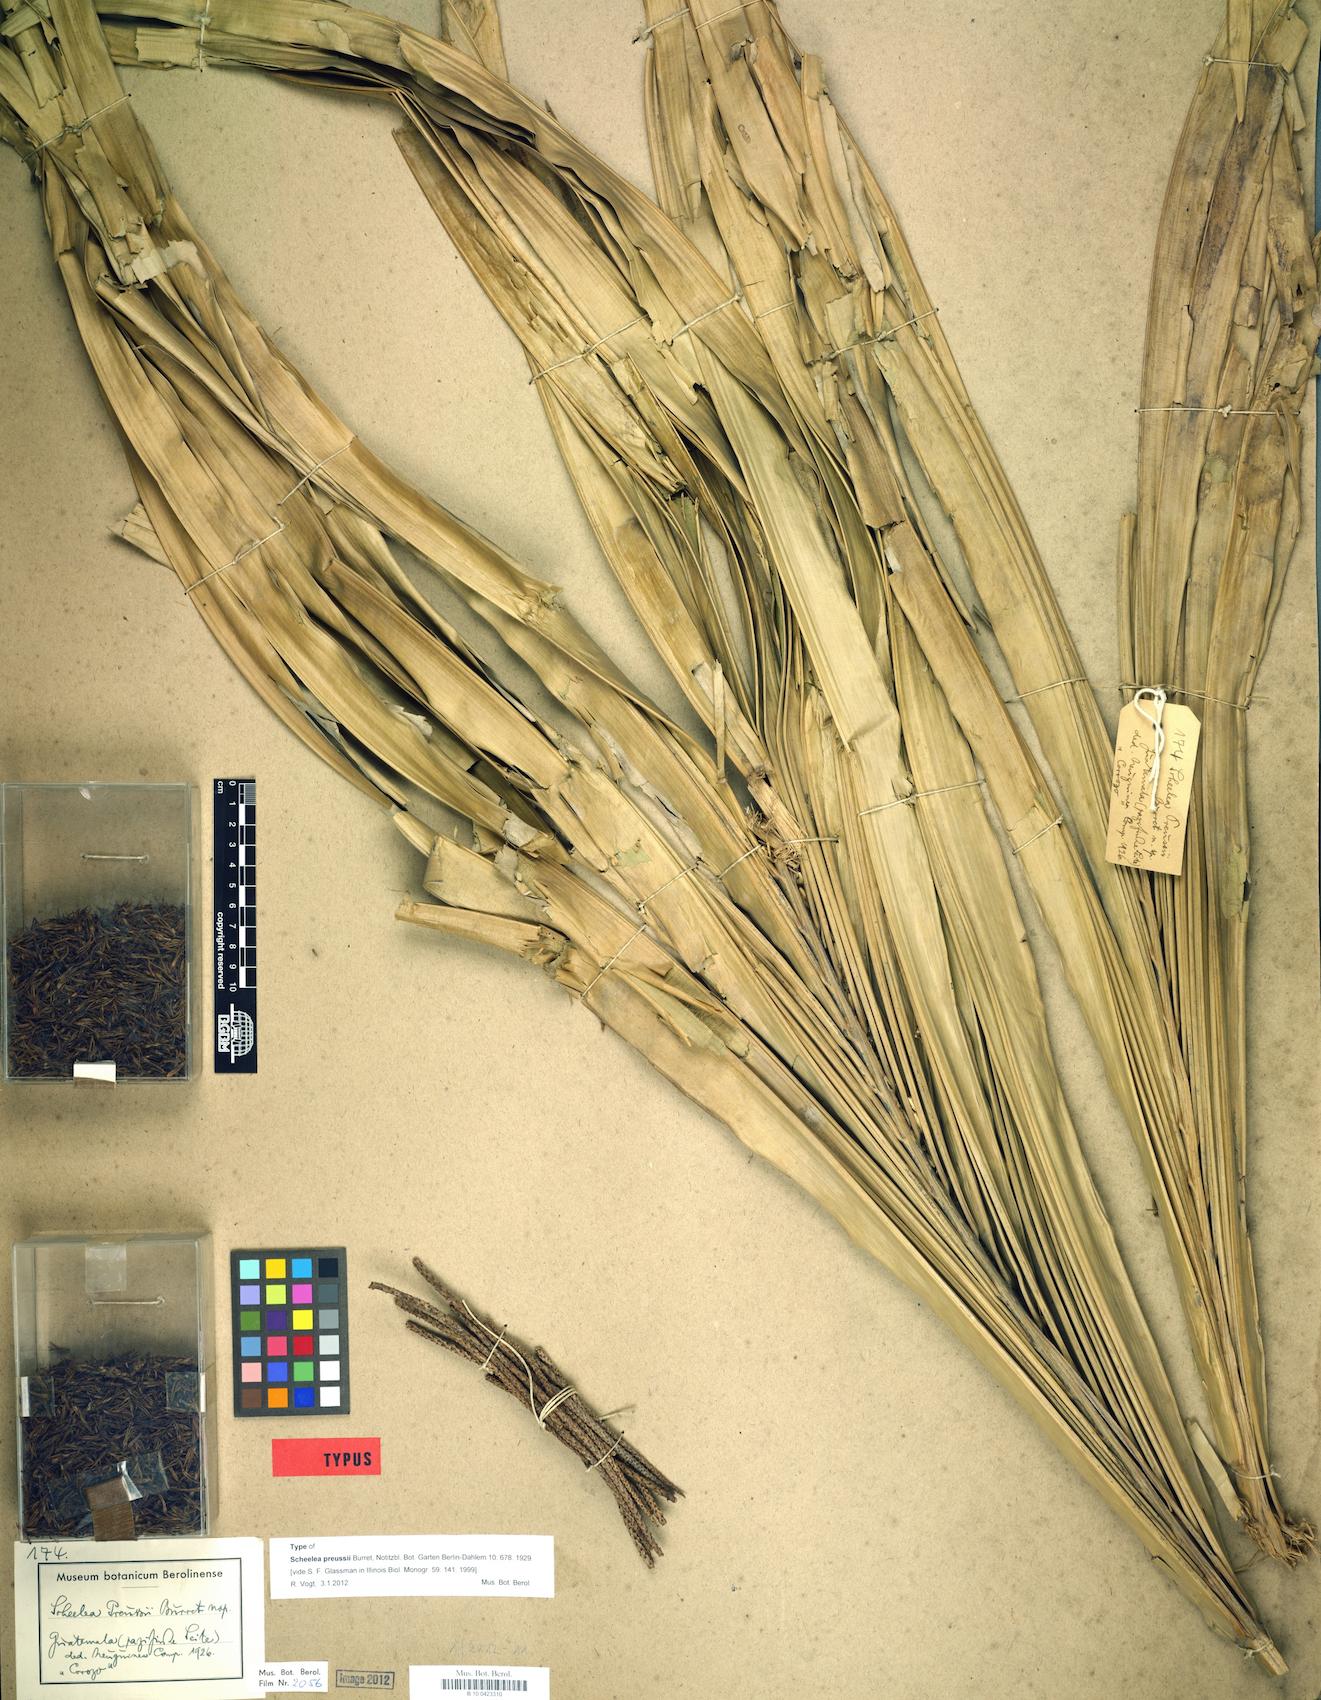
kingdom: Plantae
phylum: Tracheophyta
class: Liliopsida
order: Arecales
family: Arecaceae
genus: Attalea
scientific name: Attalea rostrata
